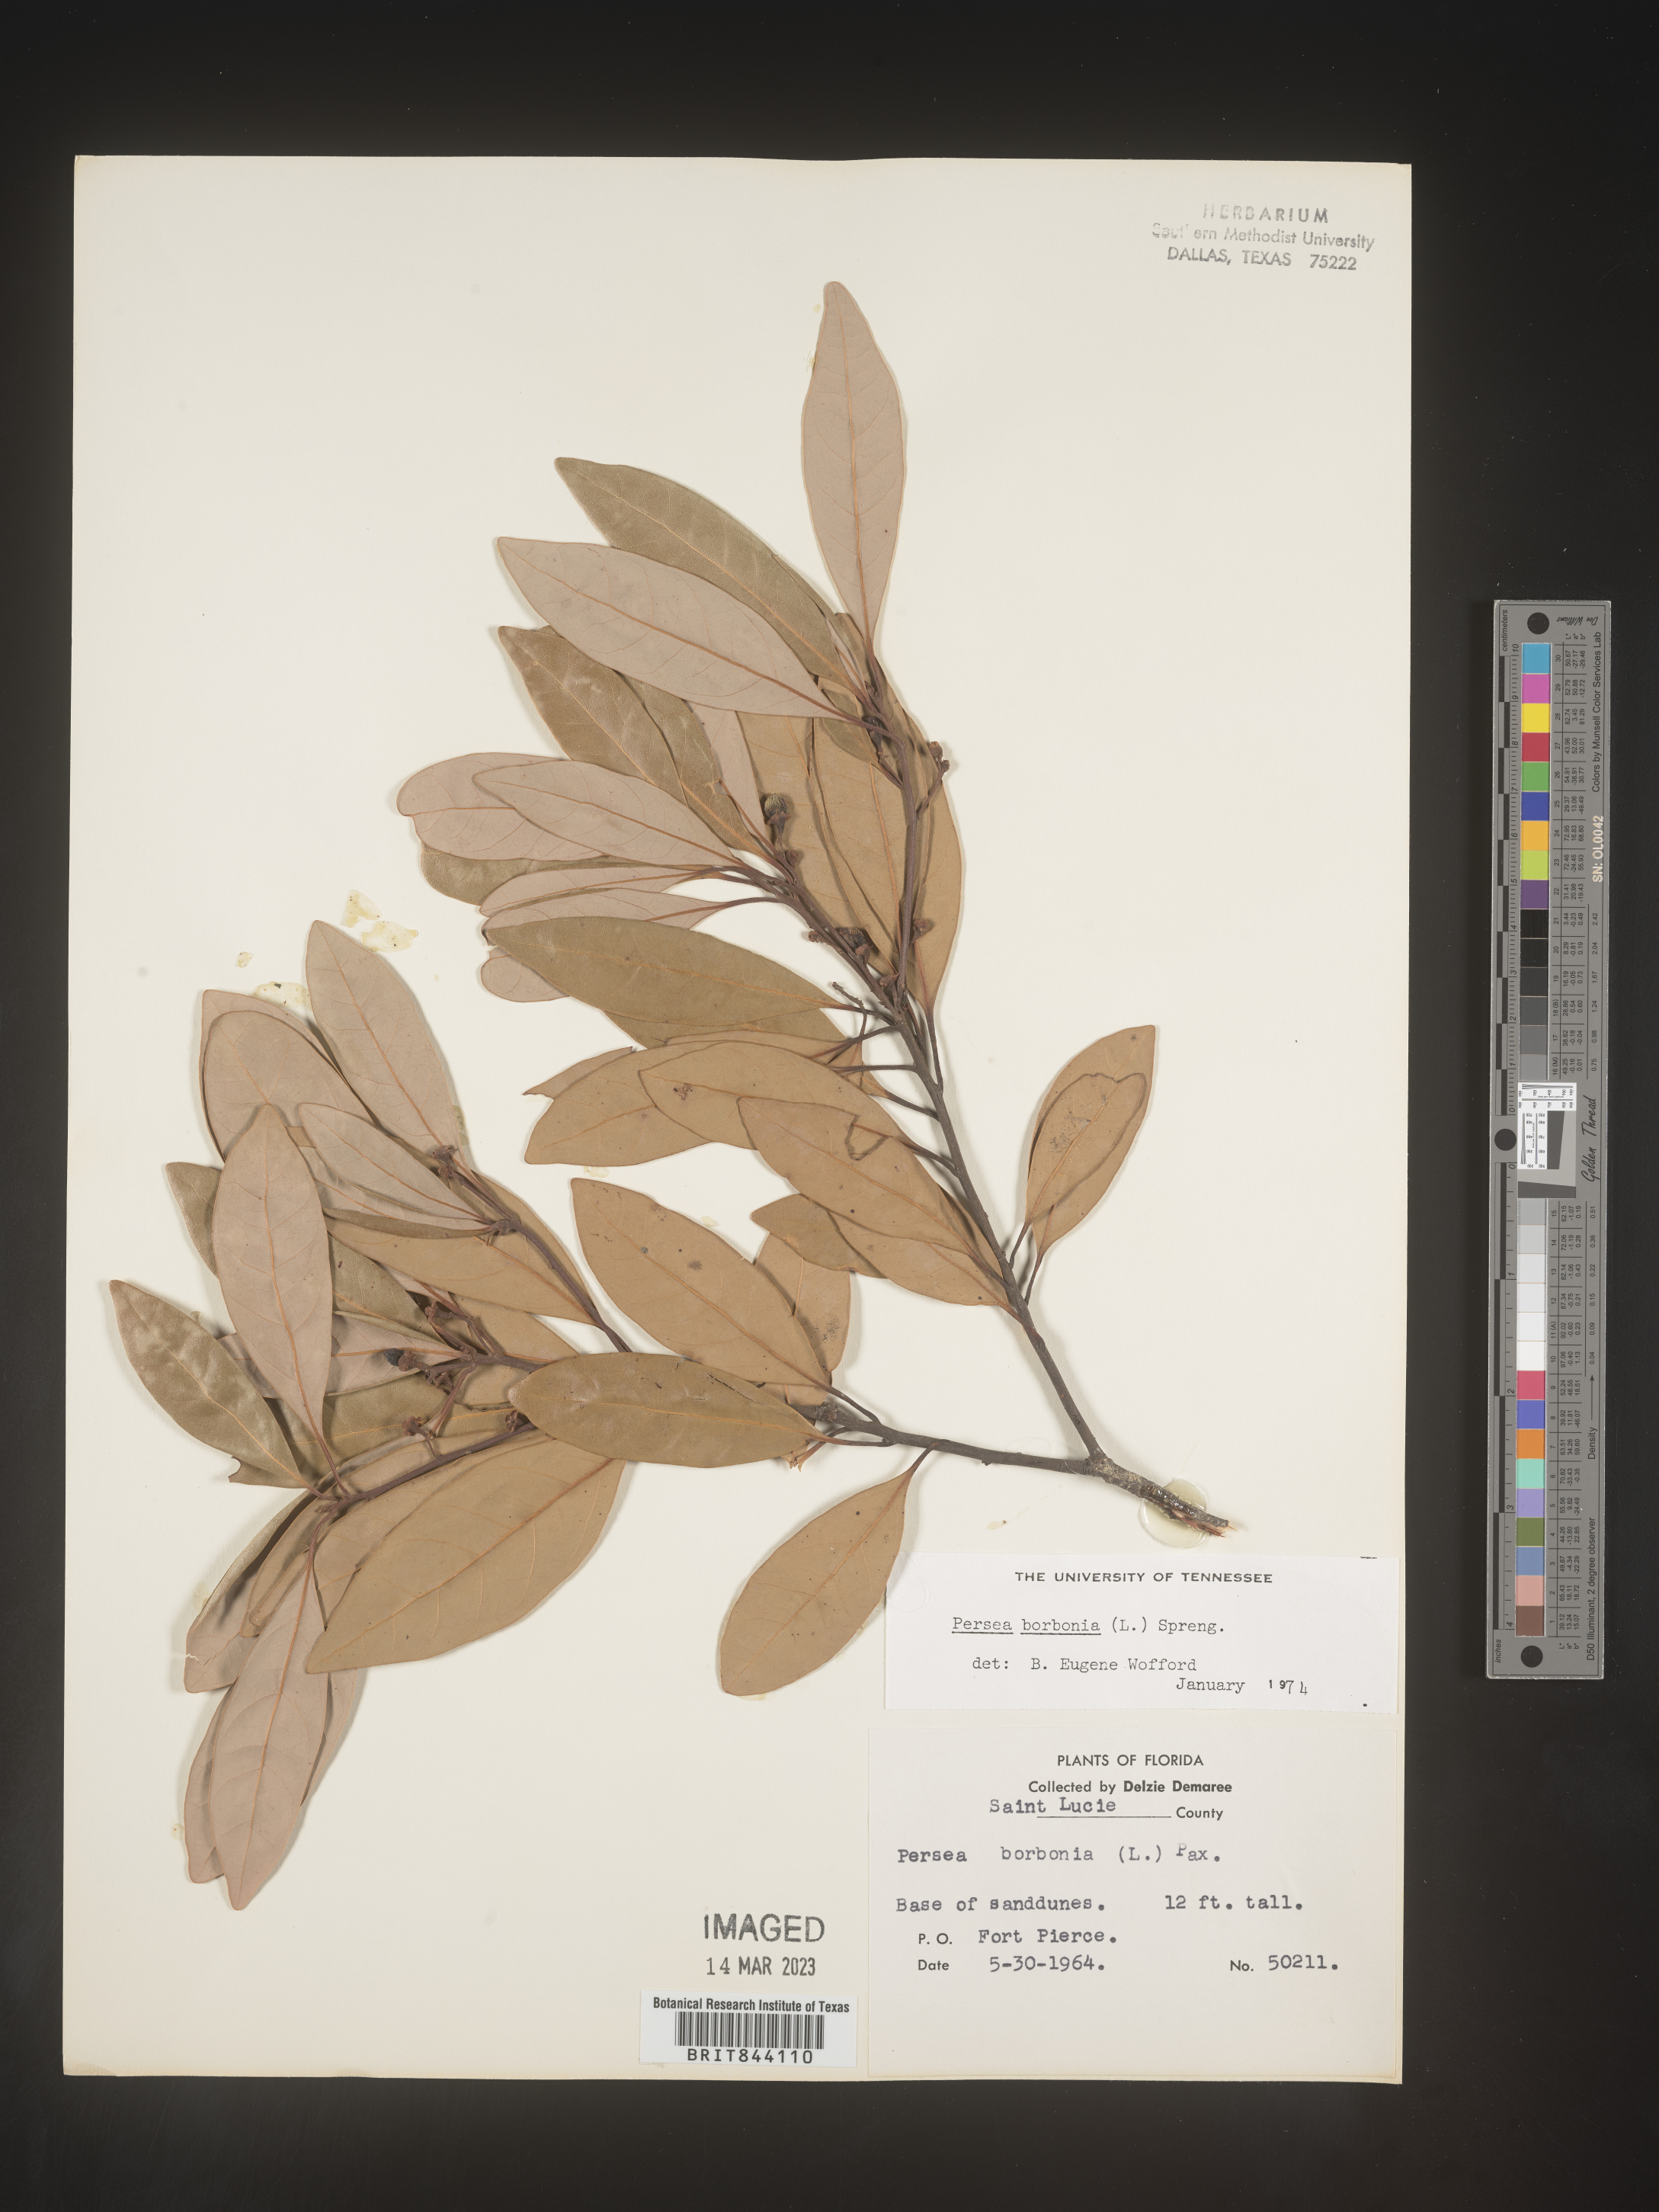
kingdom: Plantae
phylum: Tracheophyta
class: Magnoliopsida
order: Laurales
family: Lauraceae
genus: Persea
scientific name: Persea borbonia
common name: Redbay
